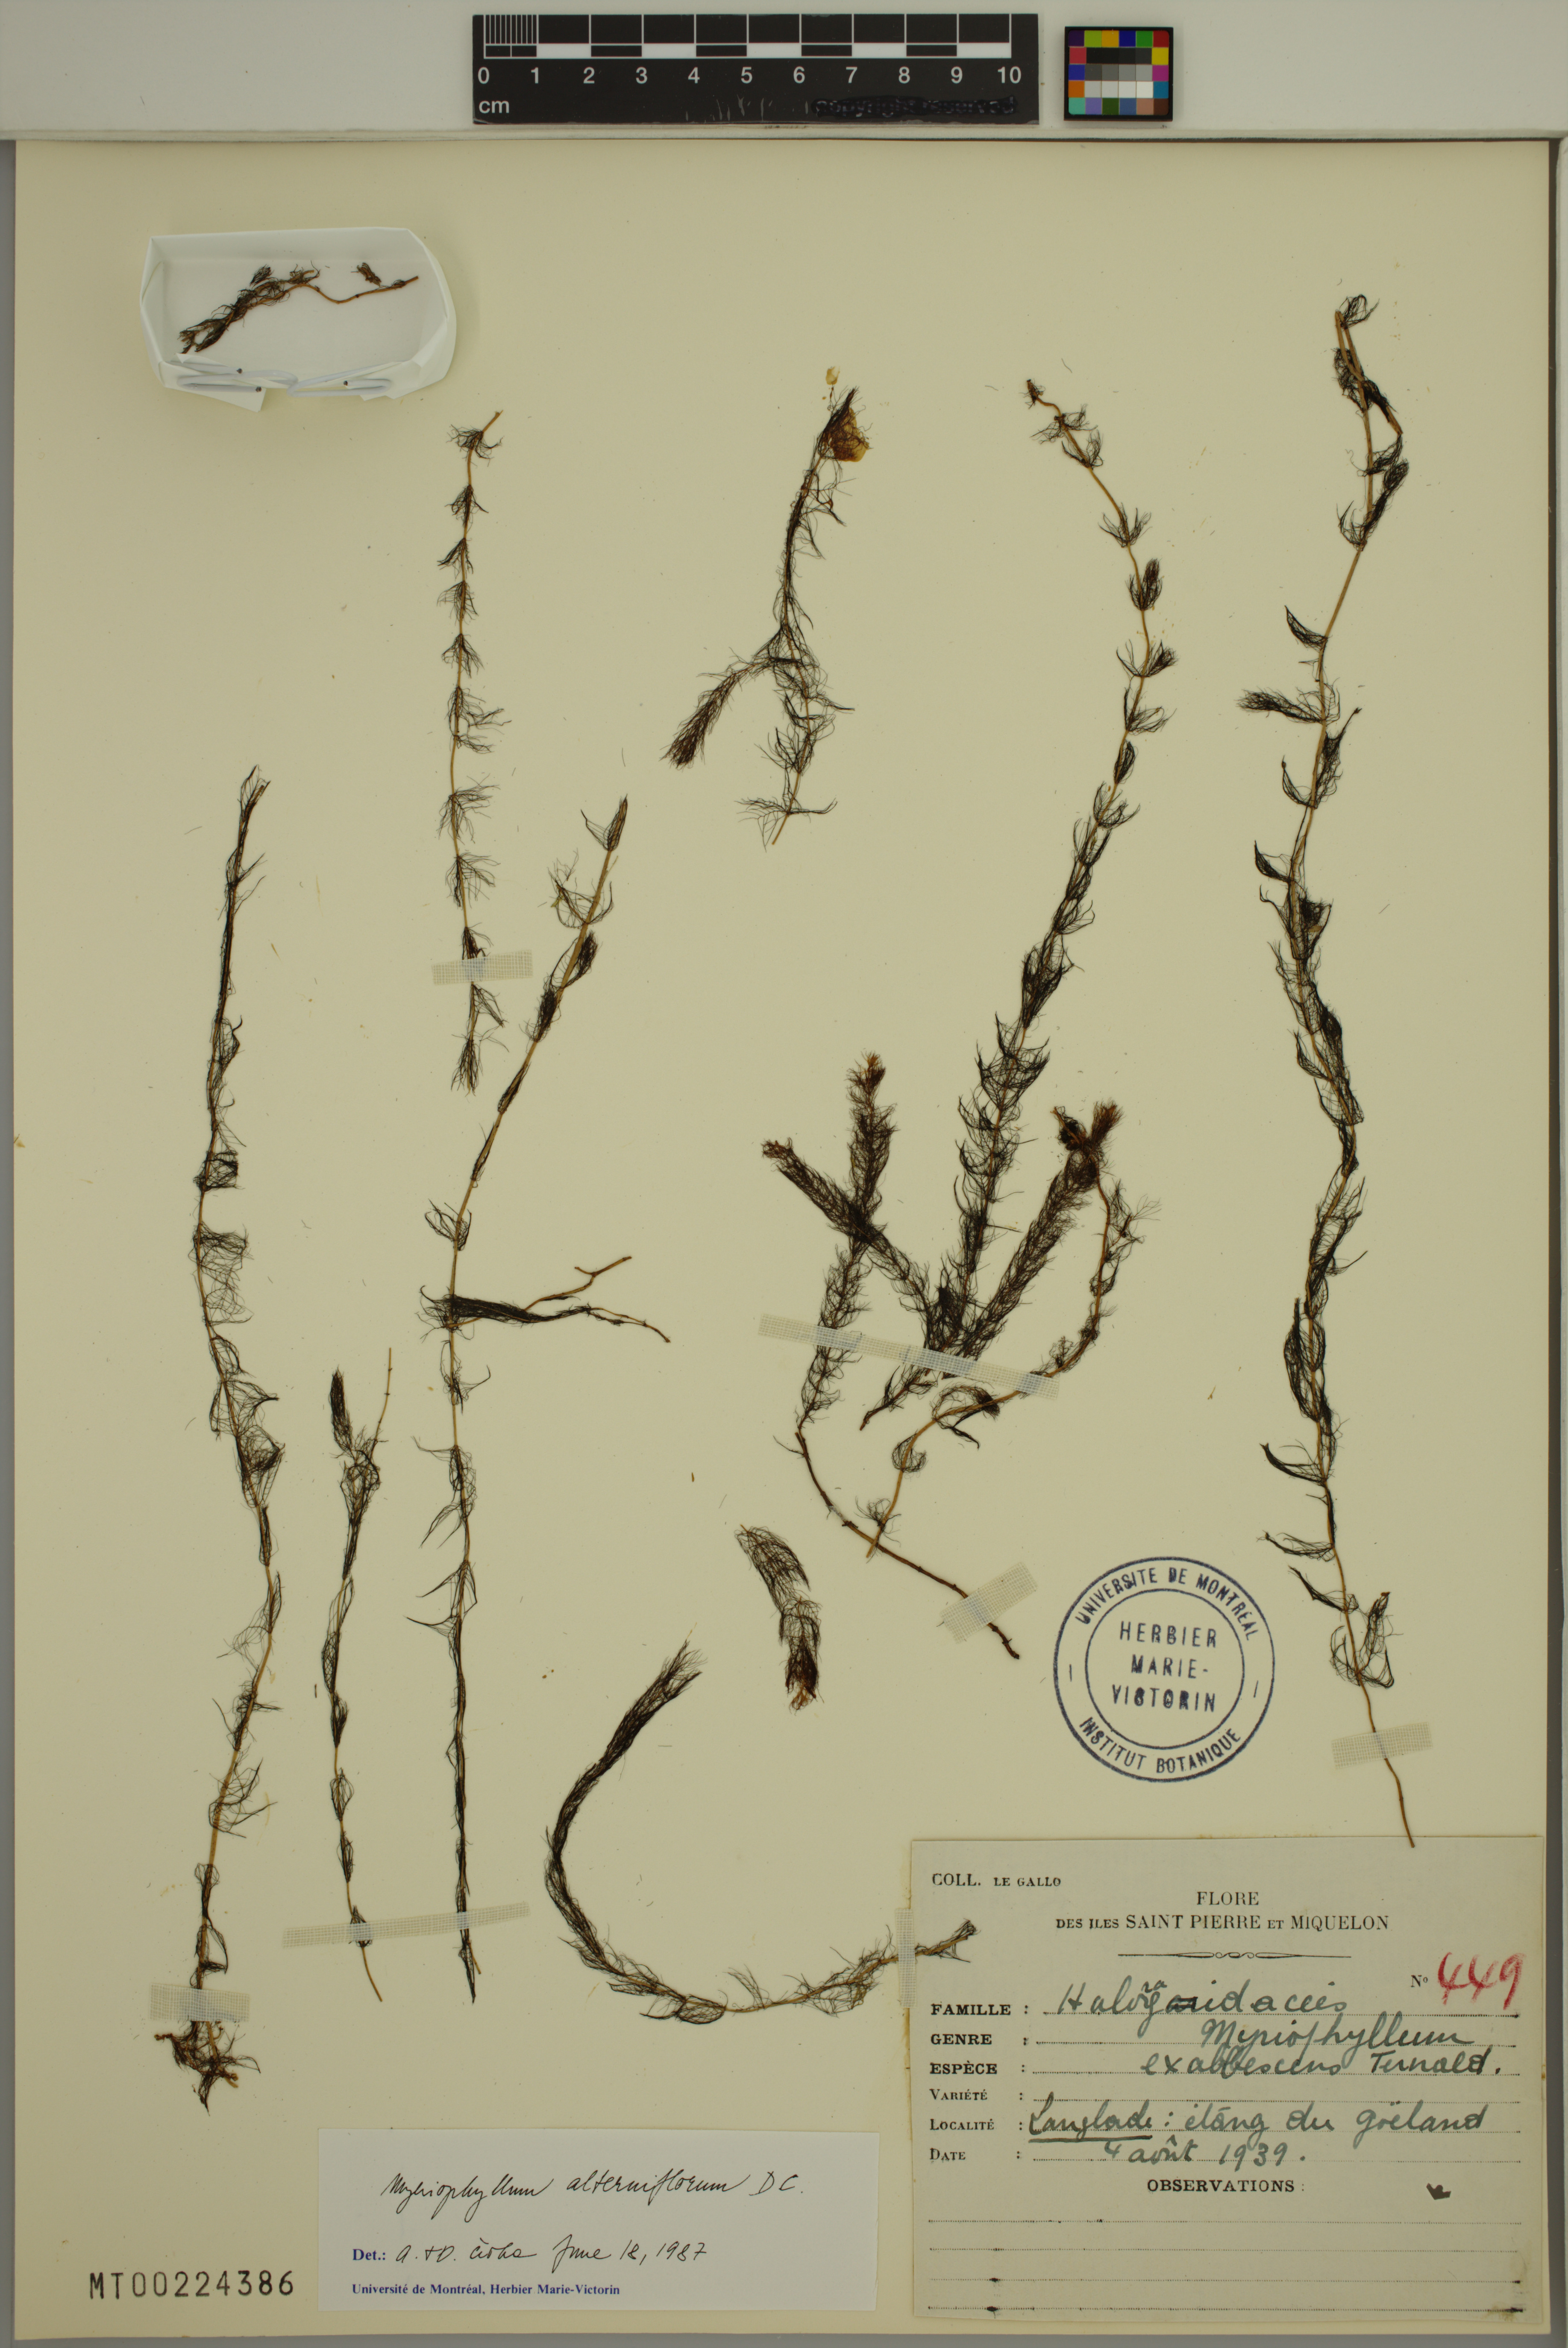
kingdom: Plantae
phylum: Tracheophyta
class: Magnoliopsida
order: Saxifragales
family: Haloragaceae
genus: Myriophyllum
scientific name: Myriophyllum alterniflorum
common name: Alternate water-milfoil
